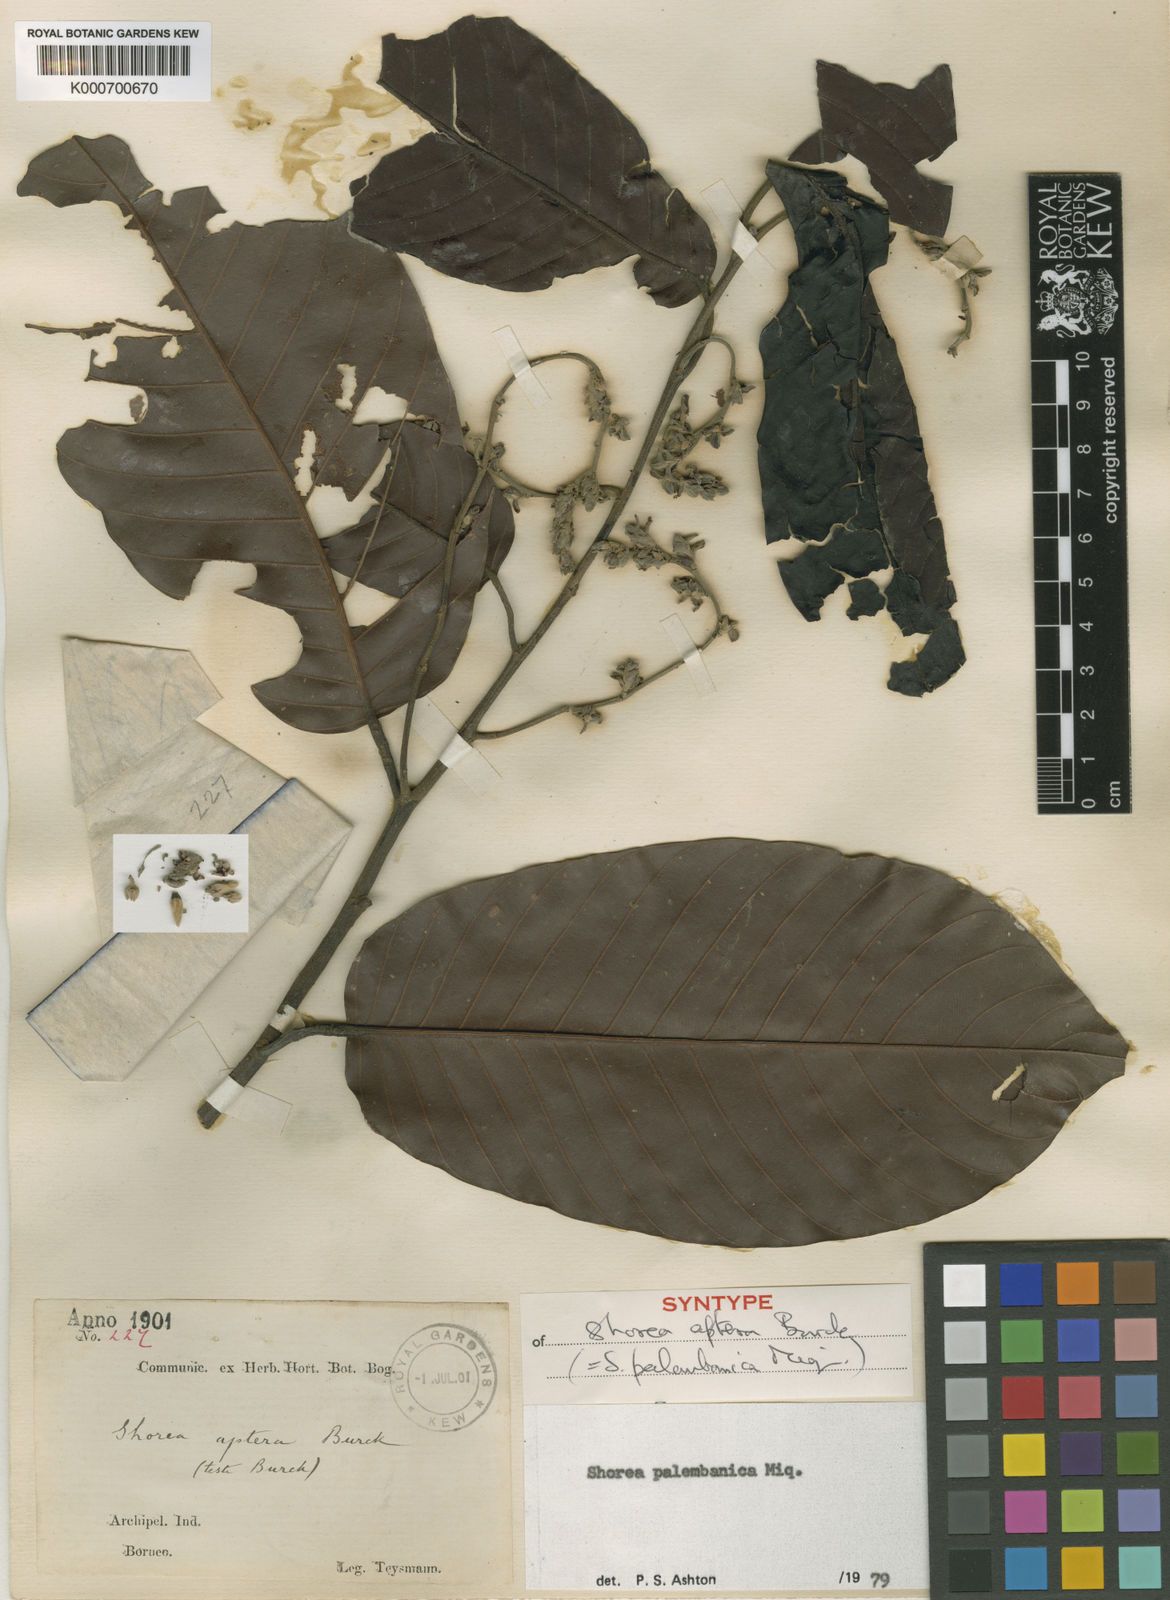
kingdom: Plantae
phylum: Tracheophyta
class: Magnoliopsida
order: Malvales
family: Dipterocarpaceae
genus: Shorea
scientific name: Shorea palembanica
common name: Light red meranti
